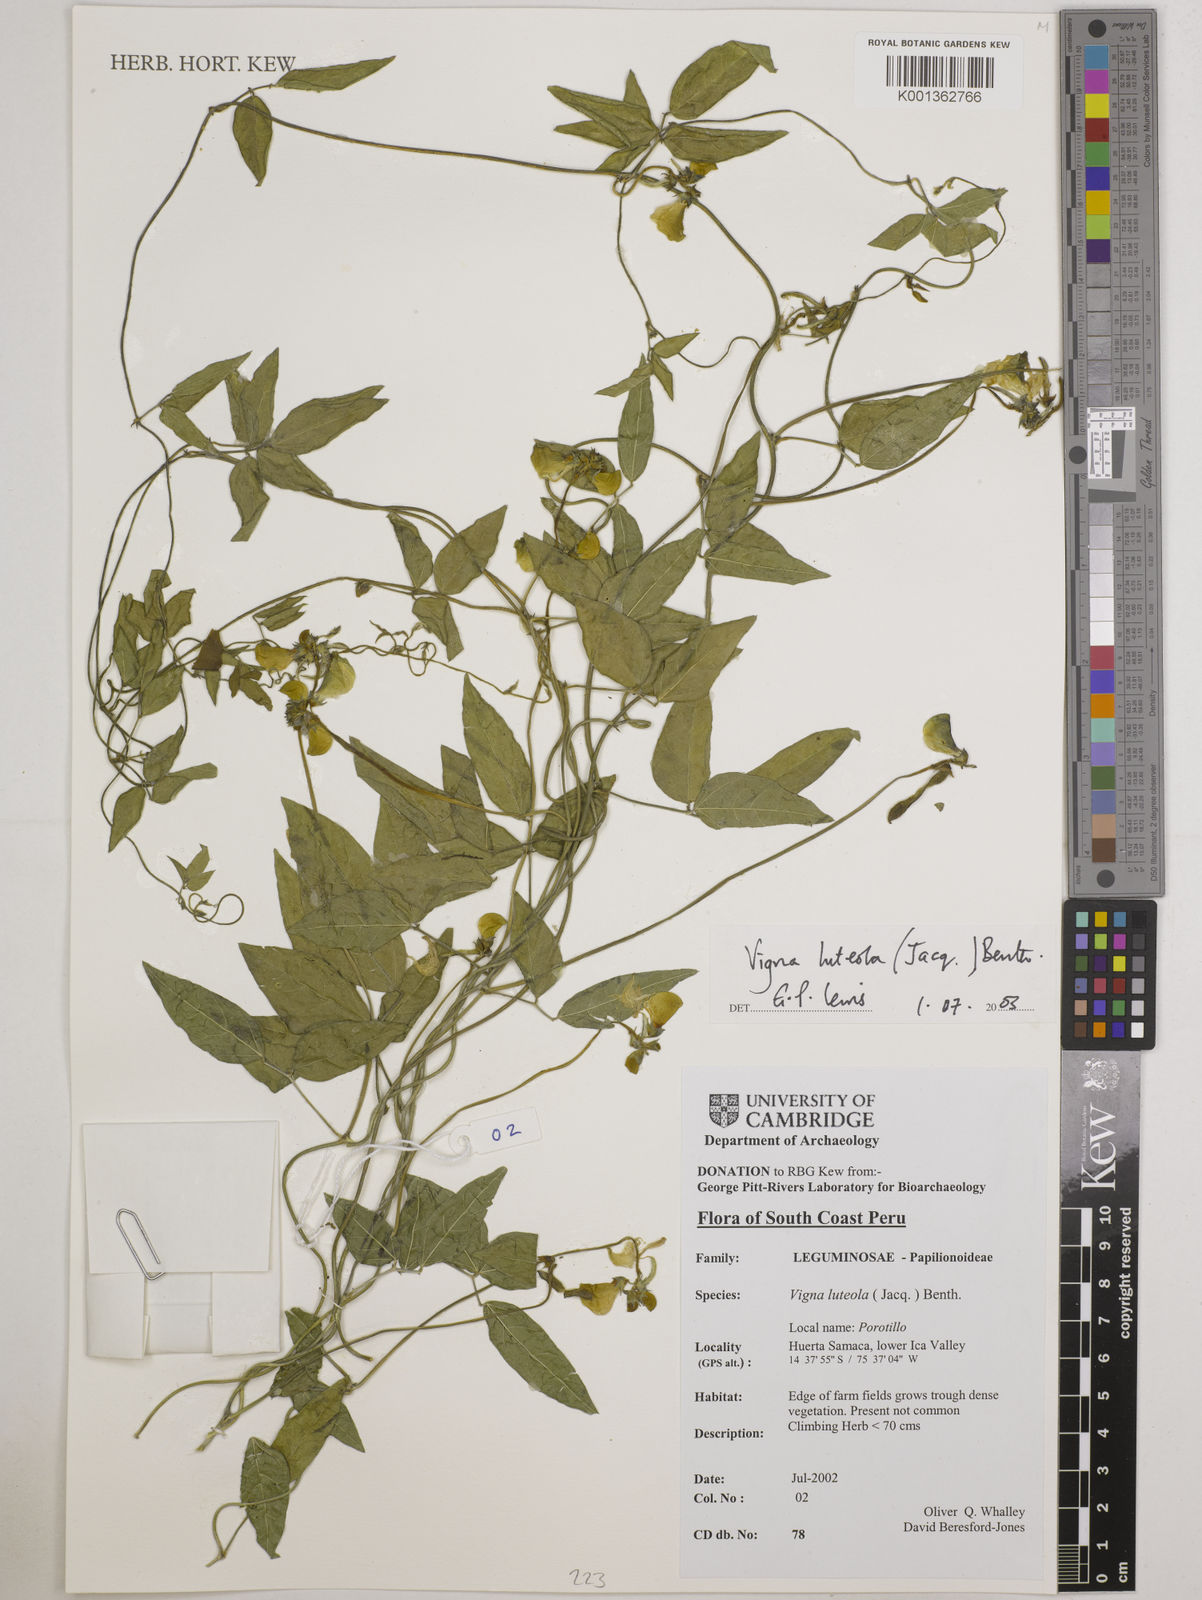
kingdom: Plantae
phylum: Tracheophyta
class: Magnoliopsida
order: Fabales
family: Fabaceae
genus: Vigna
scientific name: Vigna luteola
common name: Hairypod cowpea
